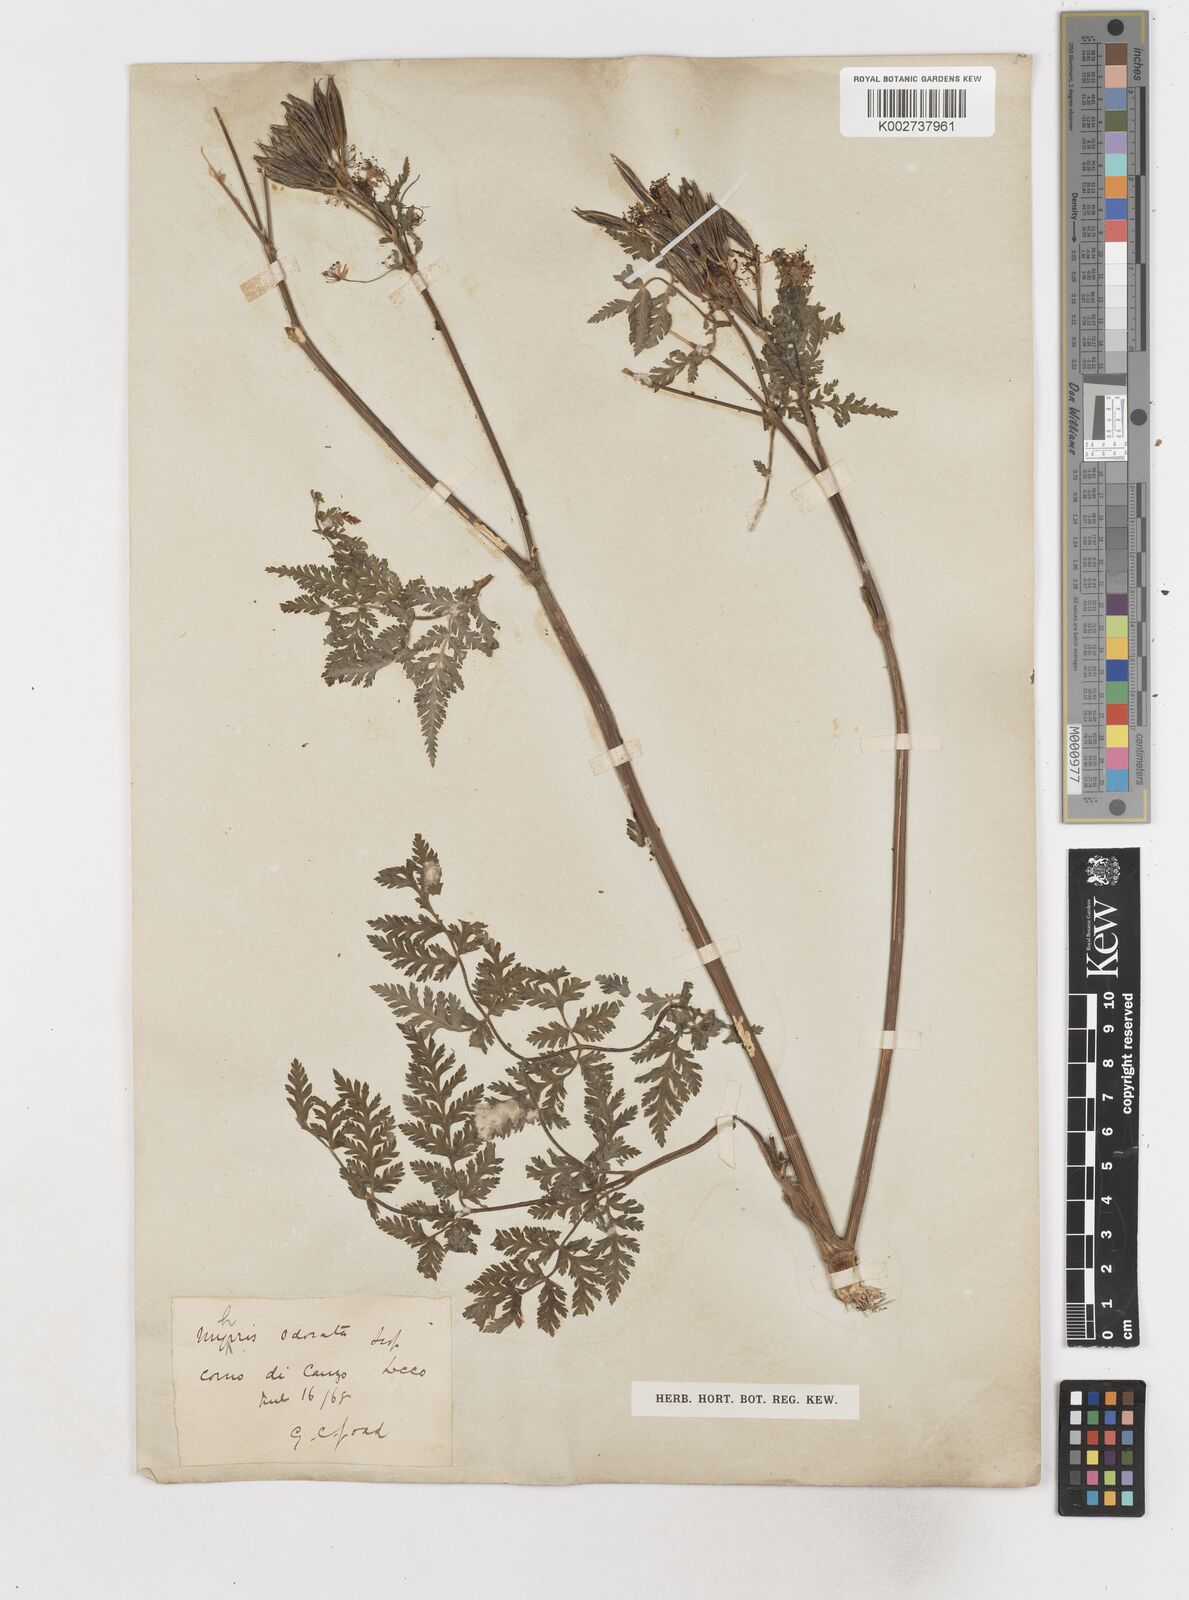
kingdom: Plantae
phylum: Tracheophyta
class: Magnoliopsida
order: Apiales
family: Apiaceae
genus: Myrrhis
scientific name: Myrrhis odorata
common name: Sweet cicely
